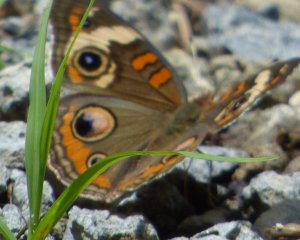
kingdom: Animalia
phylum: Arthropoda
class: Insecta
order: Lepidoptera
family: Nymphalidae
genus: Junonia
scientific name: Junonia coenia
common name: Common Buckeye
